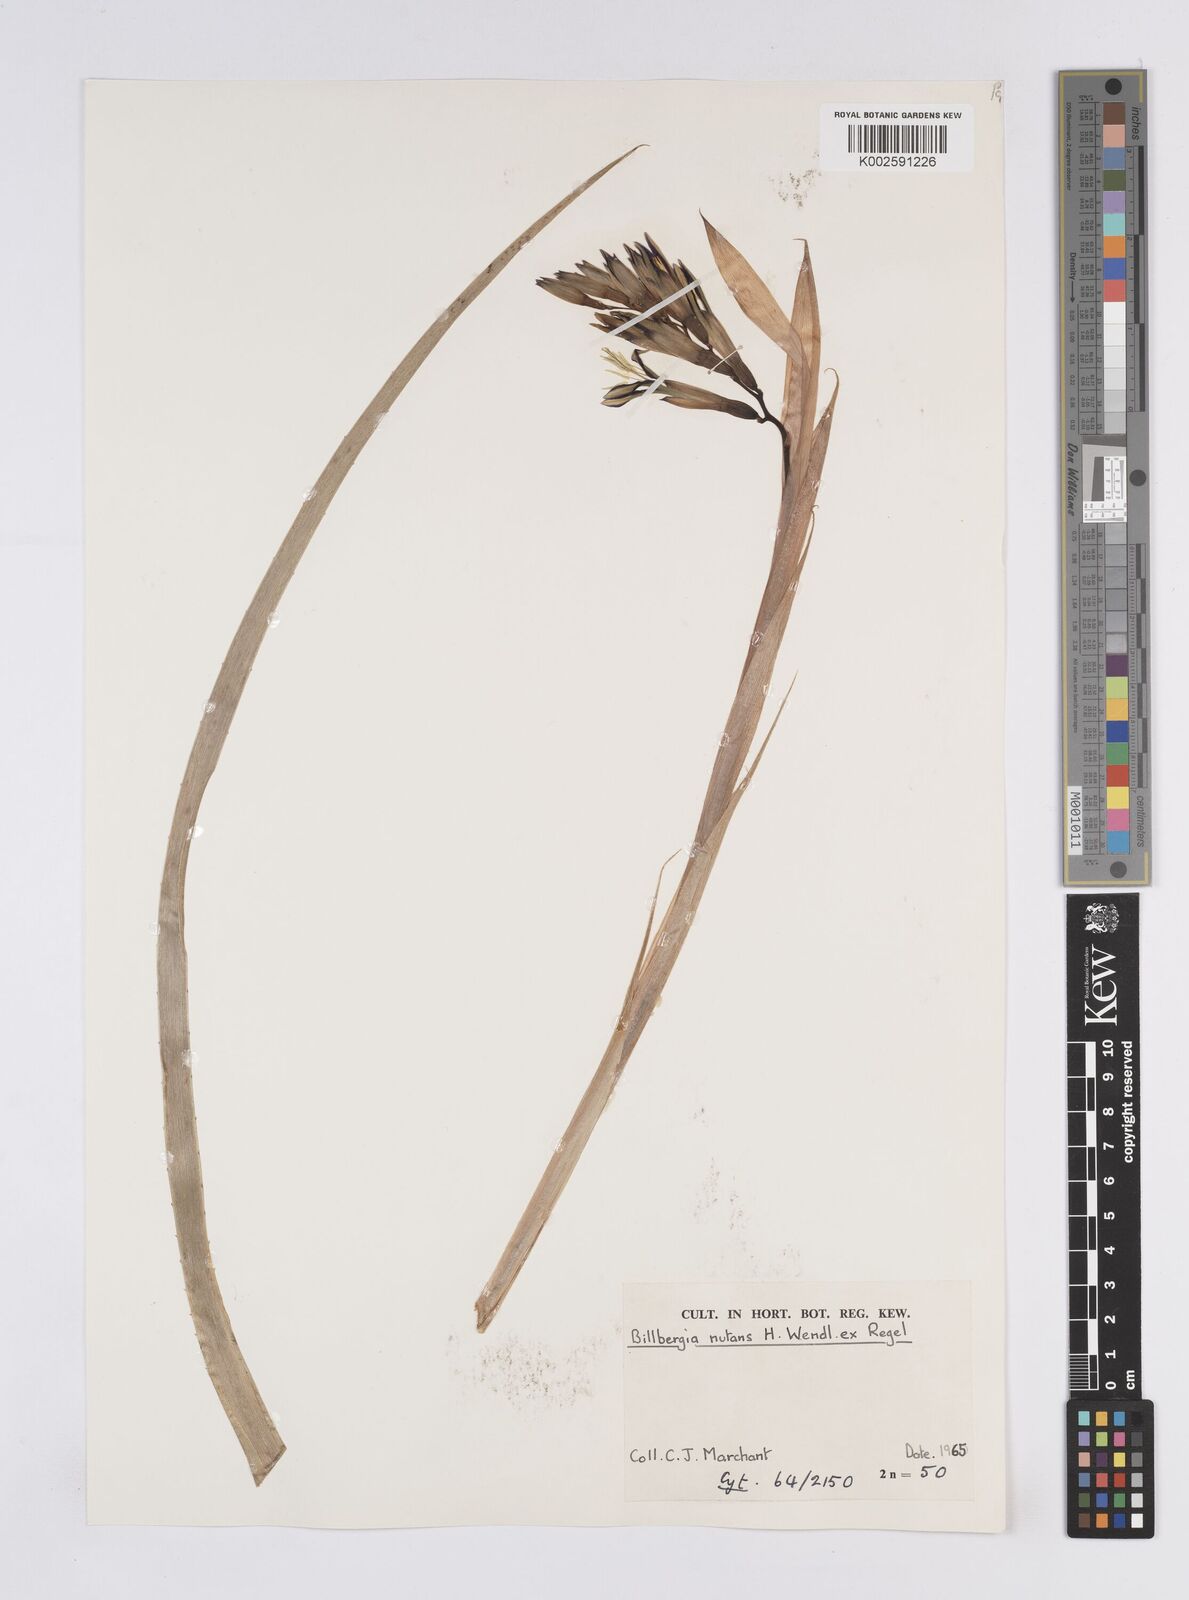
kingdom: Plantae
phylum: Tracheophyta
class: Liliopsida
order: Poales
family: Bromeliaceae
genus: Billbergia
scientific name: Billbergia nutans
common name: Friendship-plant
